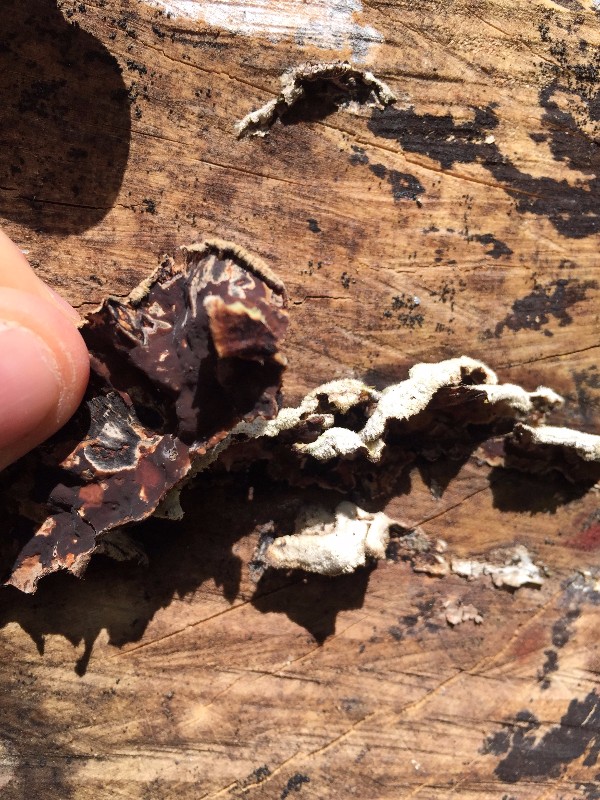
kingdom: Fungi
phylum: Basidiomycota
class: Agaricomycetes
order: Agaricales
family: Cyphellaceae
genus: Chondrostereum
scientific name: Chondrostereum purpureum
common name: purpurlædersvamp
